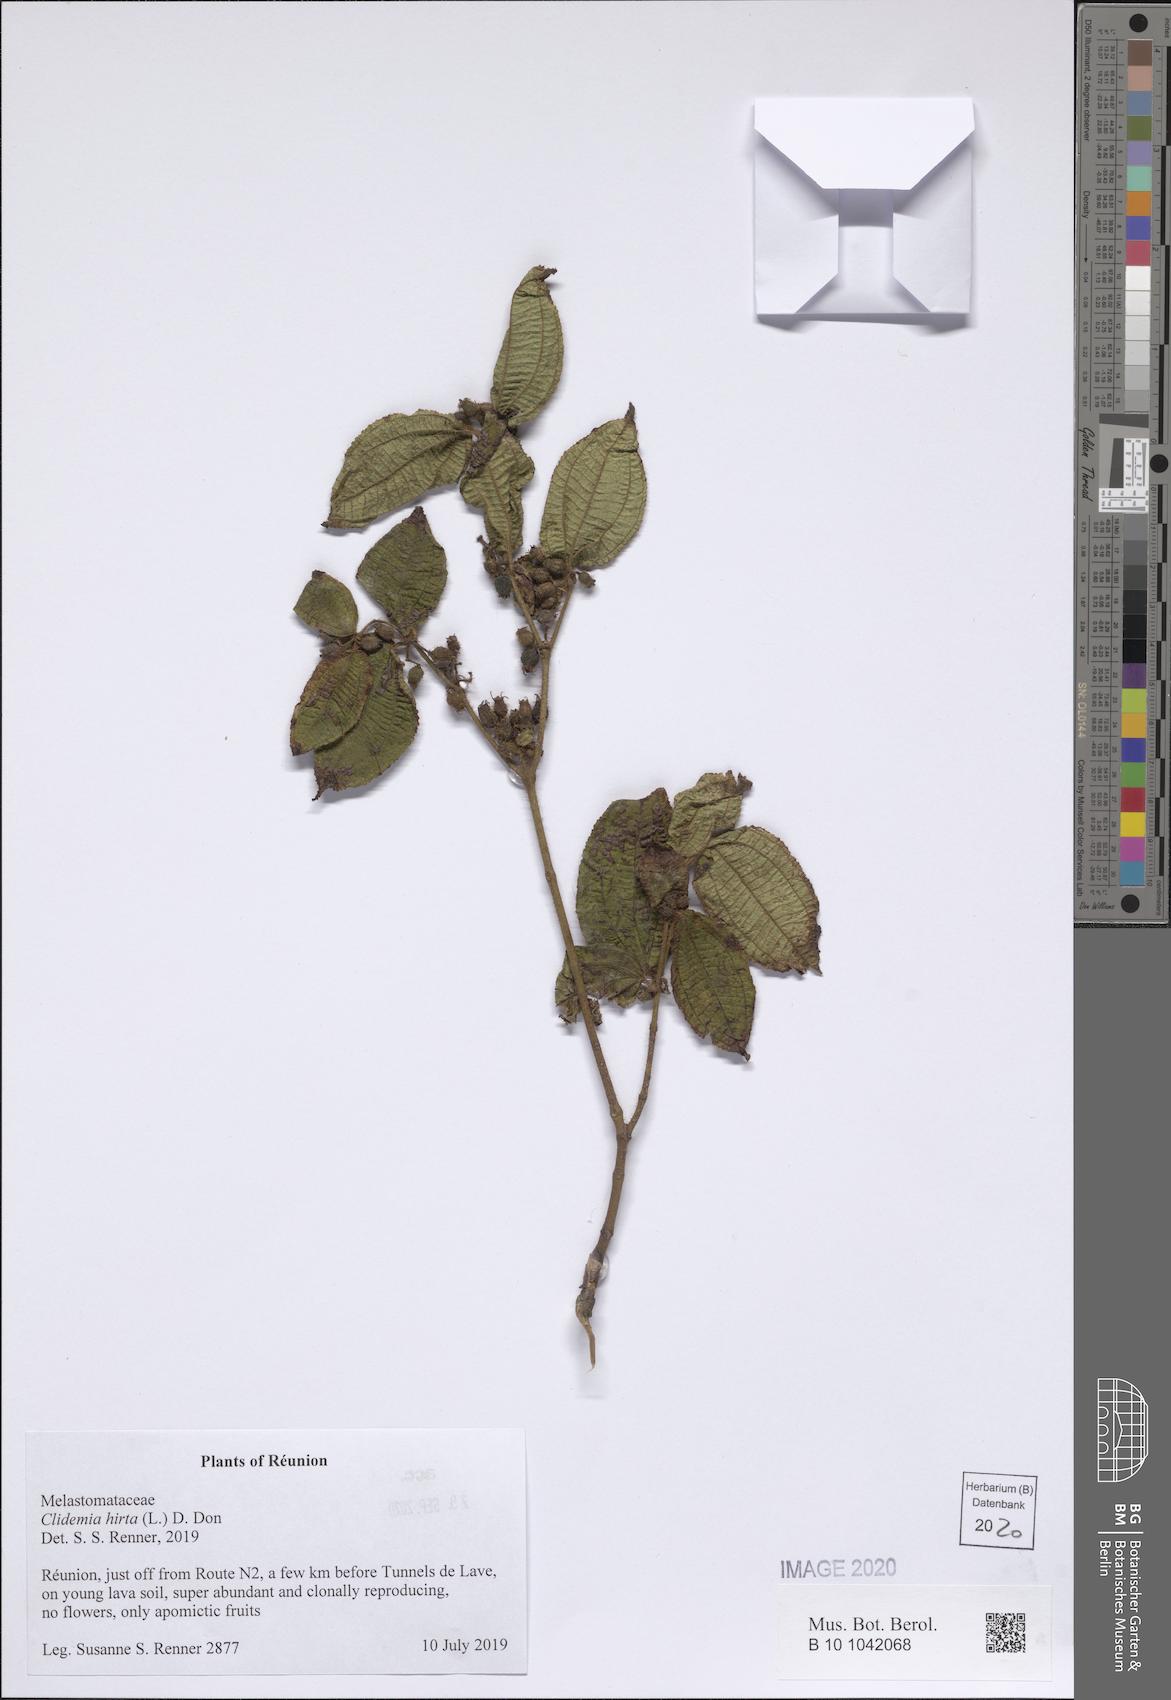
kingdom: Plantae
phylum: Tracheophyta
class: Magnoliopsida
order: Myrtales
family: Melastomataceae
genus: Miconia
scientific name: Miconia crenata
